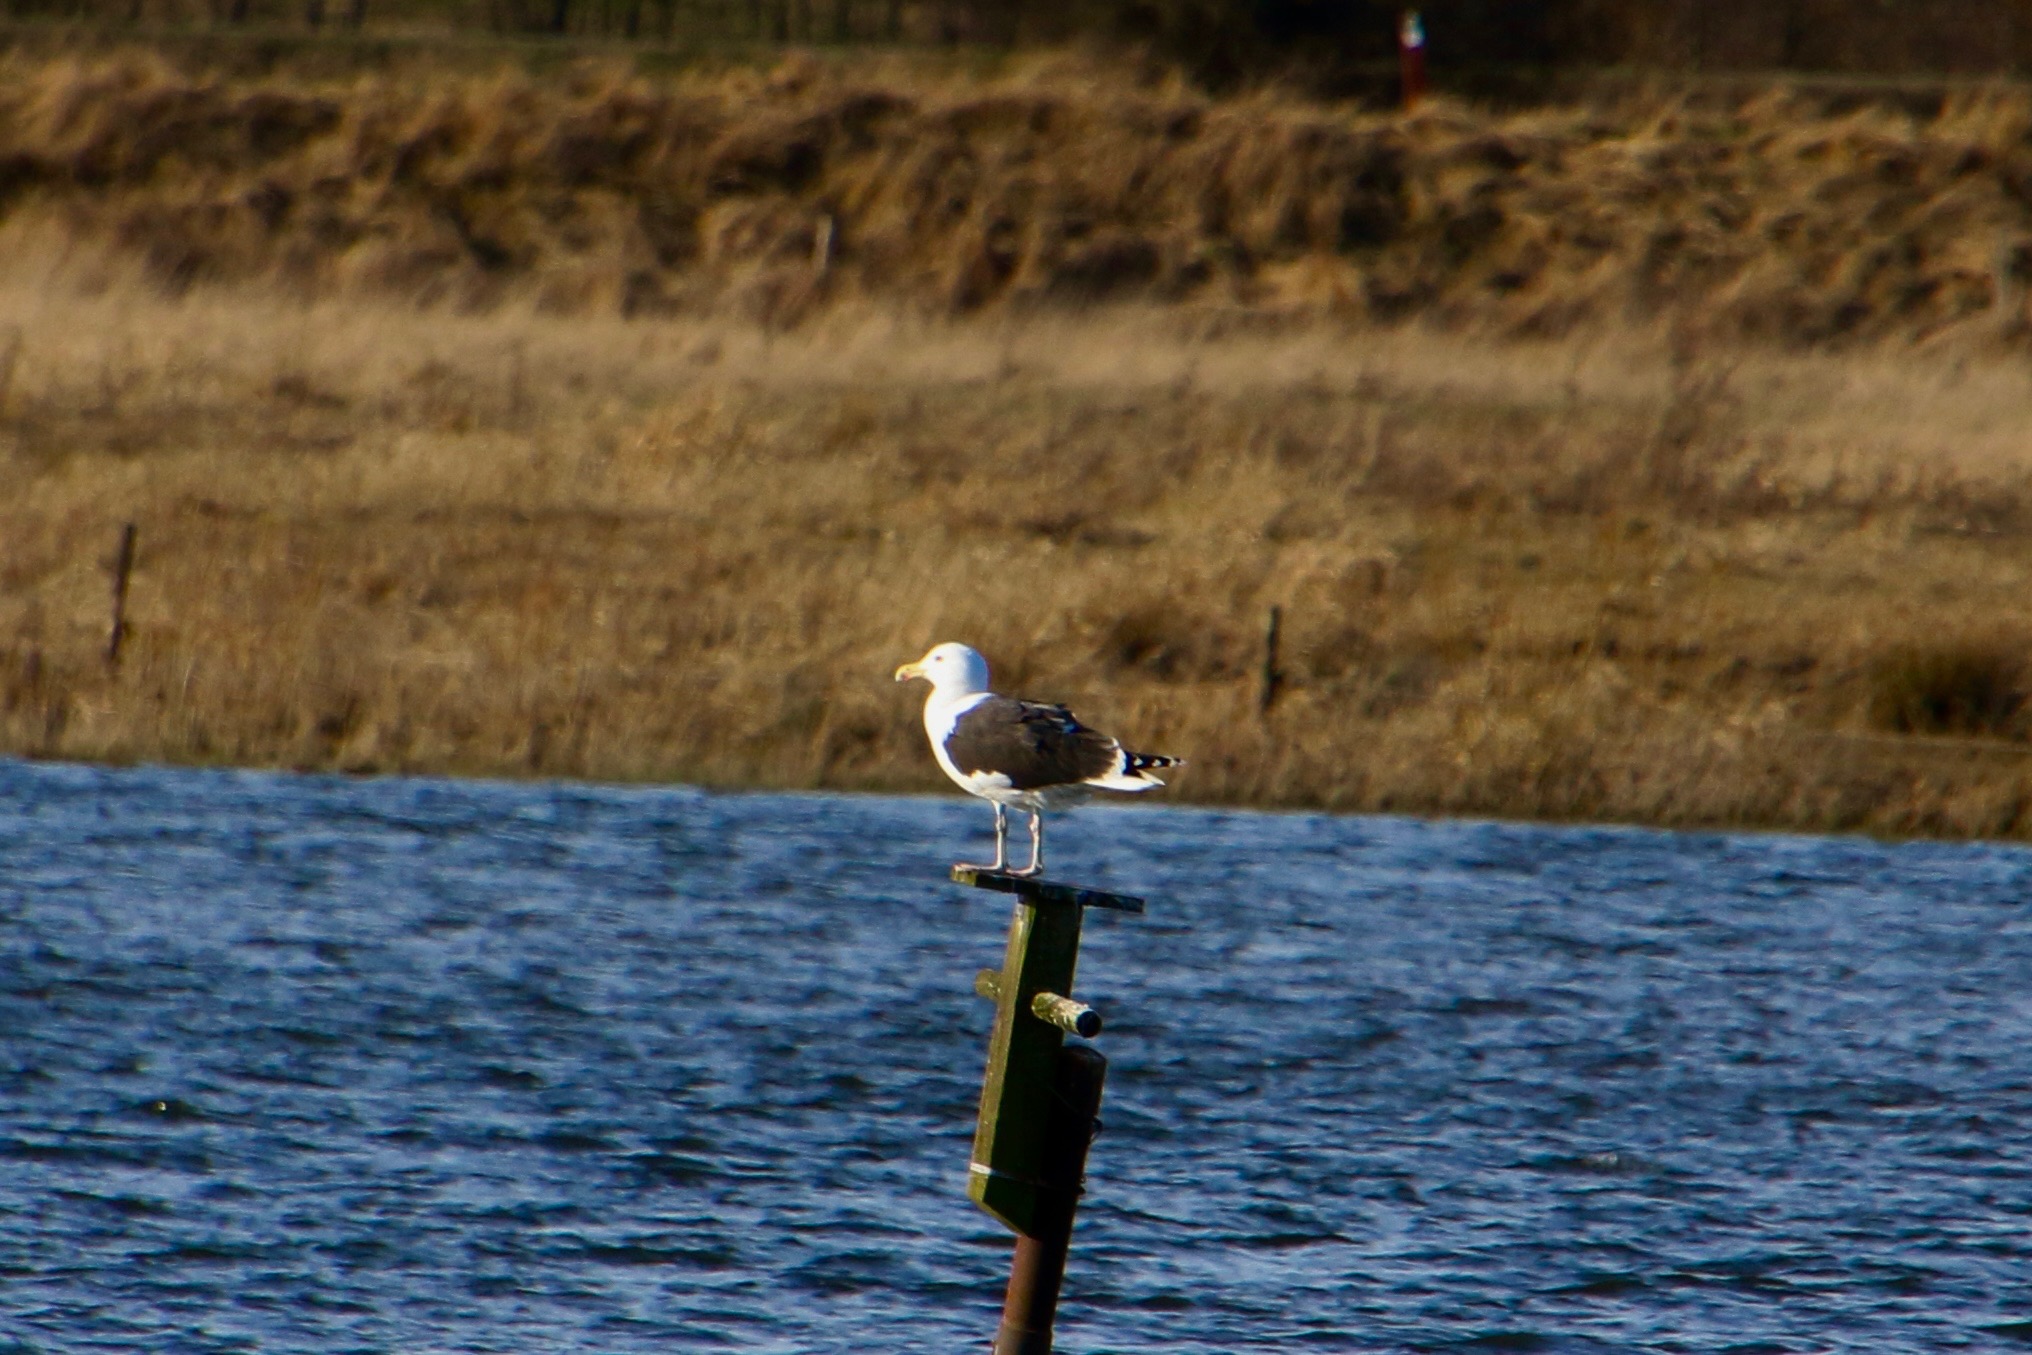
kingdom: Animalia
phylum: Chordata
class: Aves
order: Charadriiformes
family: Laridae
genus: Larus
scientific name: Larus marinus
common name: Svartbag
